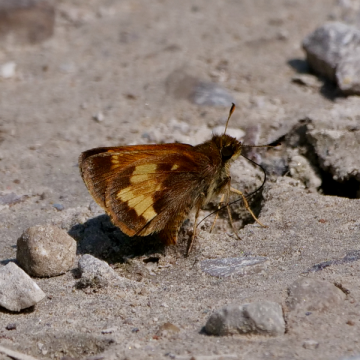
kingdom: Animalia
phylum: Arthropoda
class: Insecta
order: Lepidoptera
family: Hesperiidae
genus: Lon
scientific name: Lon hobomok
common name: Hobomok Skipper
